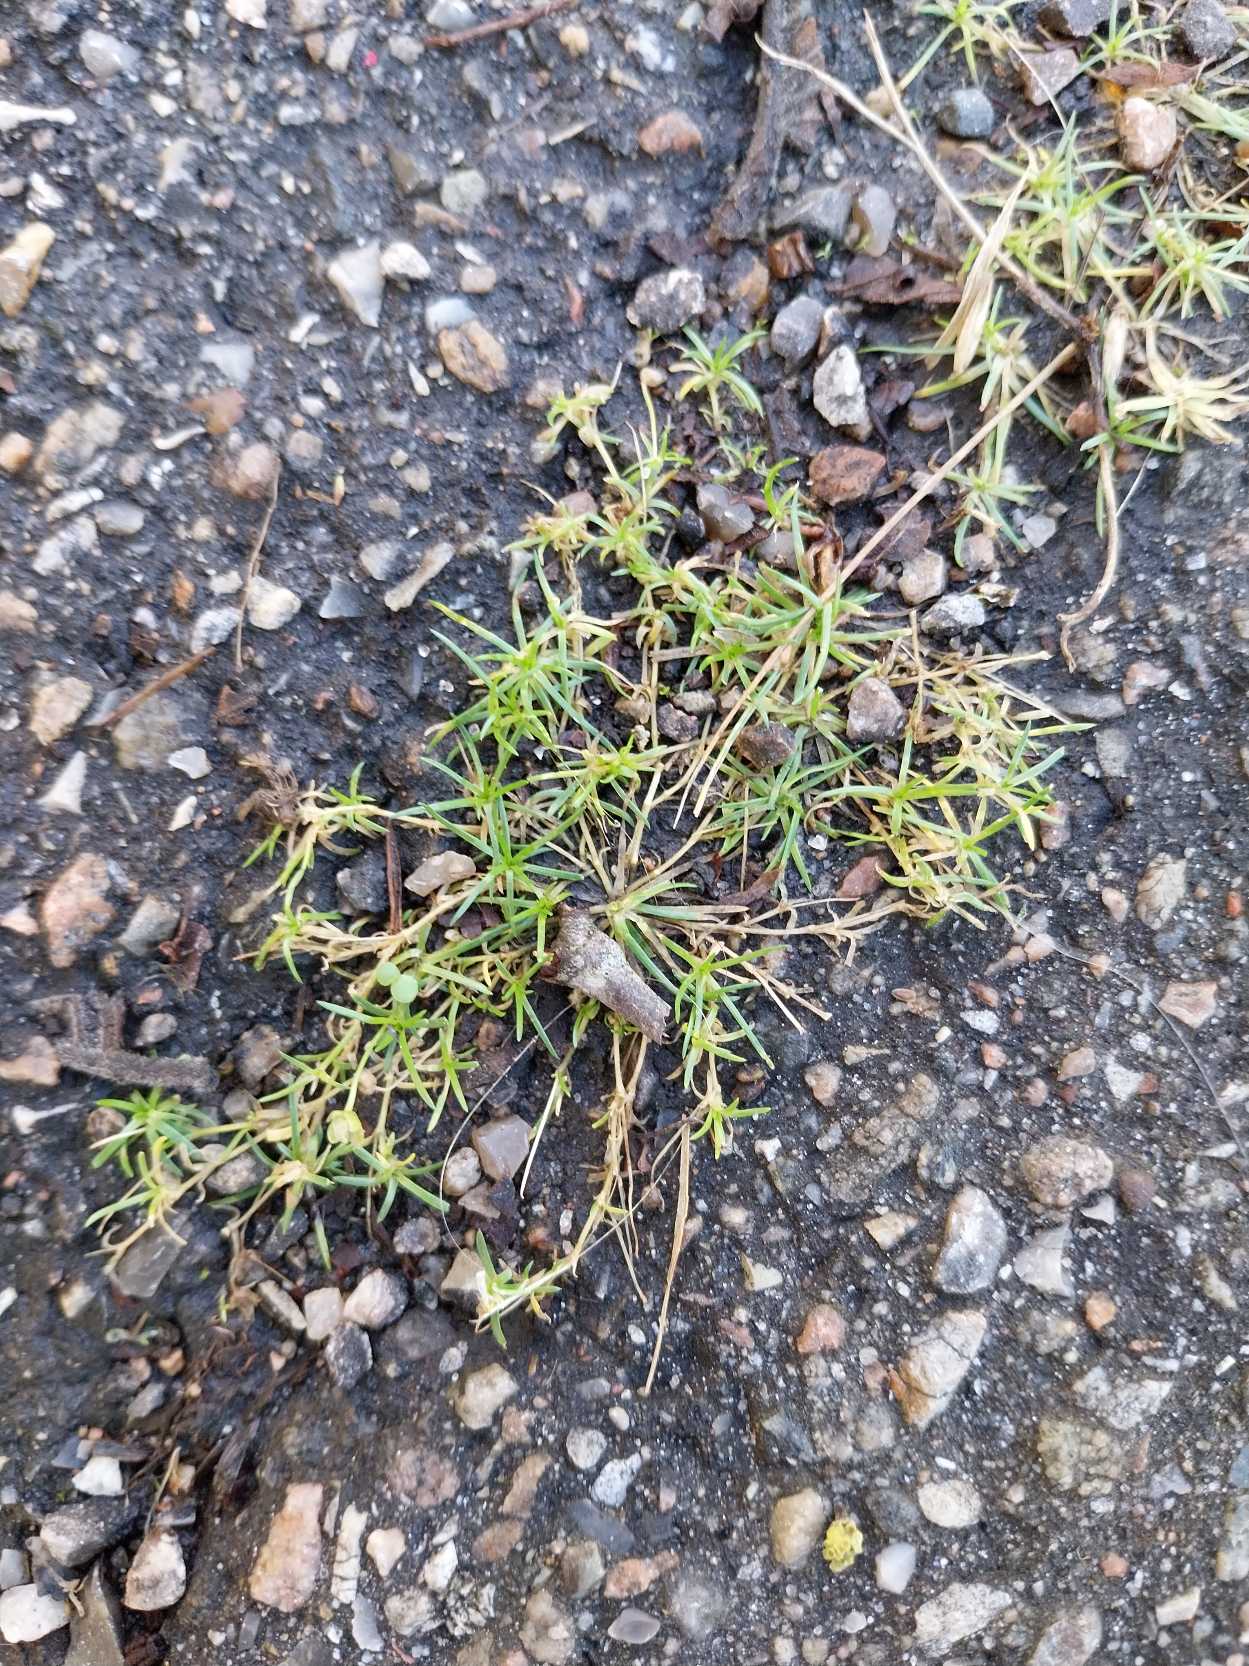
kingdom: Plantae
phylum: Tracheophyta
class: Magnoliopsida
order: Caryophyllales
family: Caryophyllaceae
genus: Sagina
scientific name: Sagina procumbens
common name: Almindelig firling
